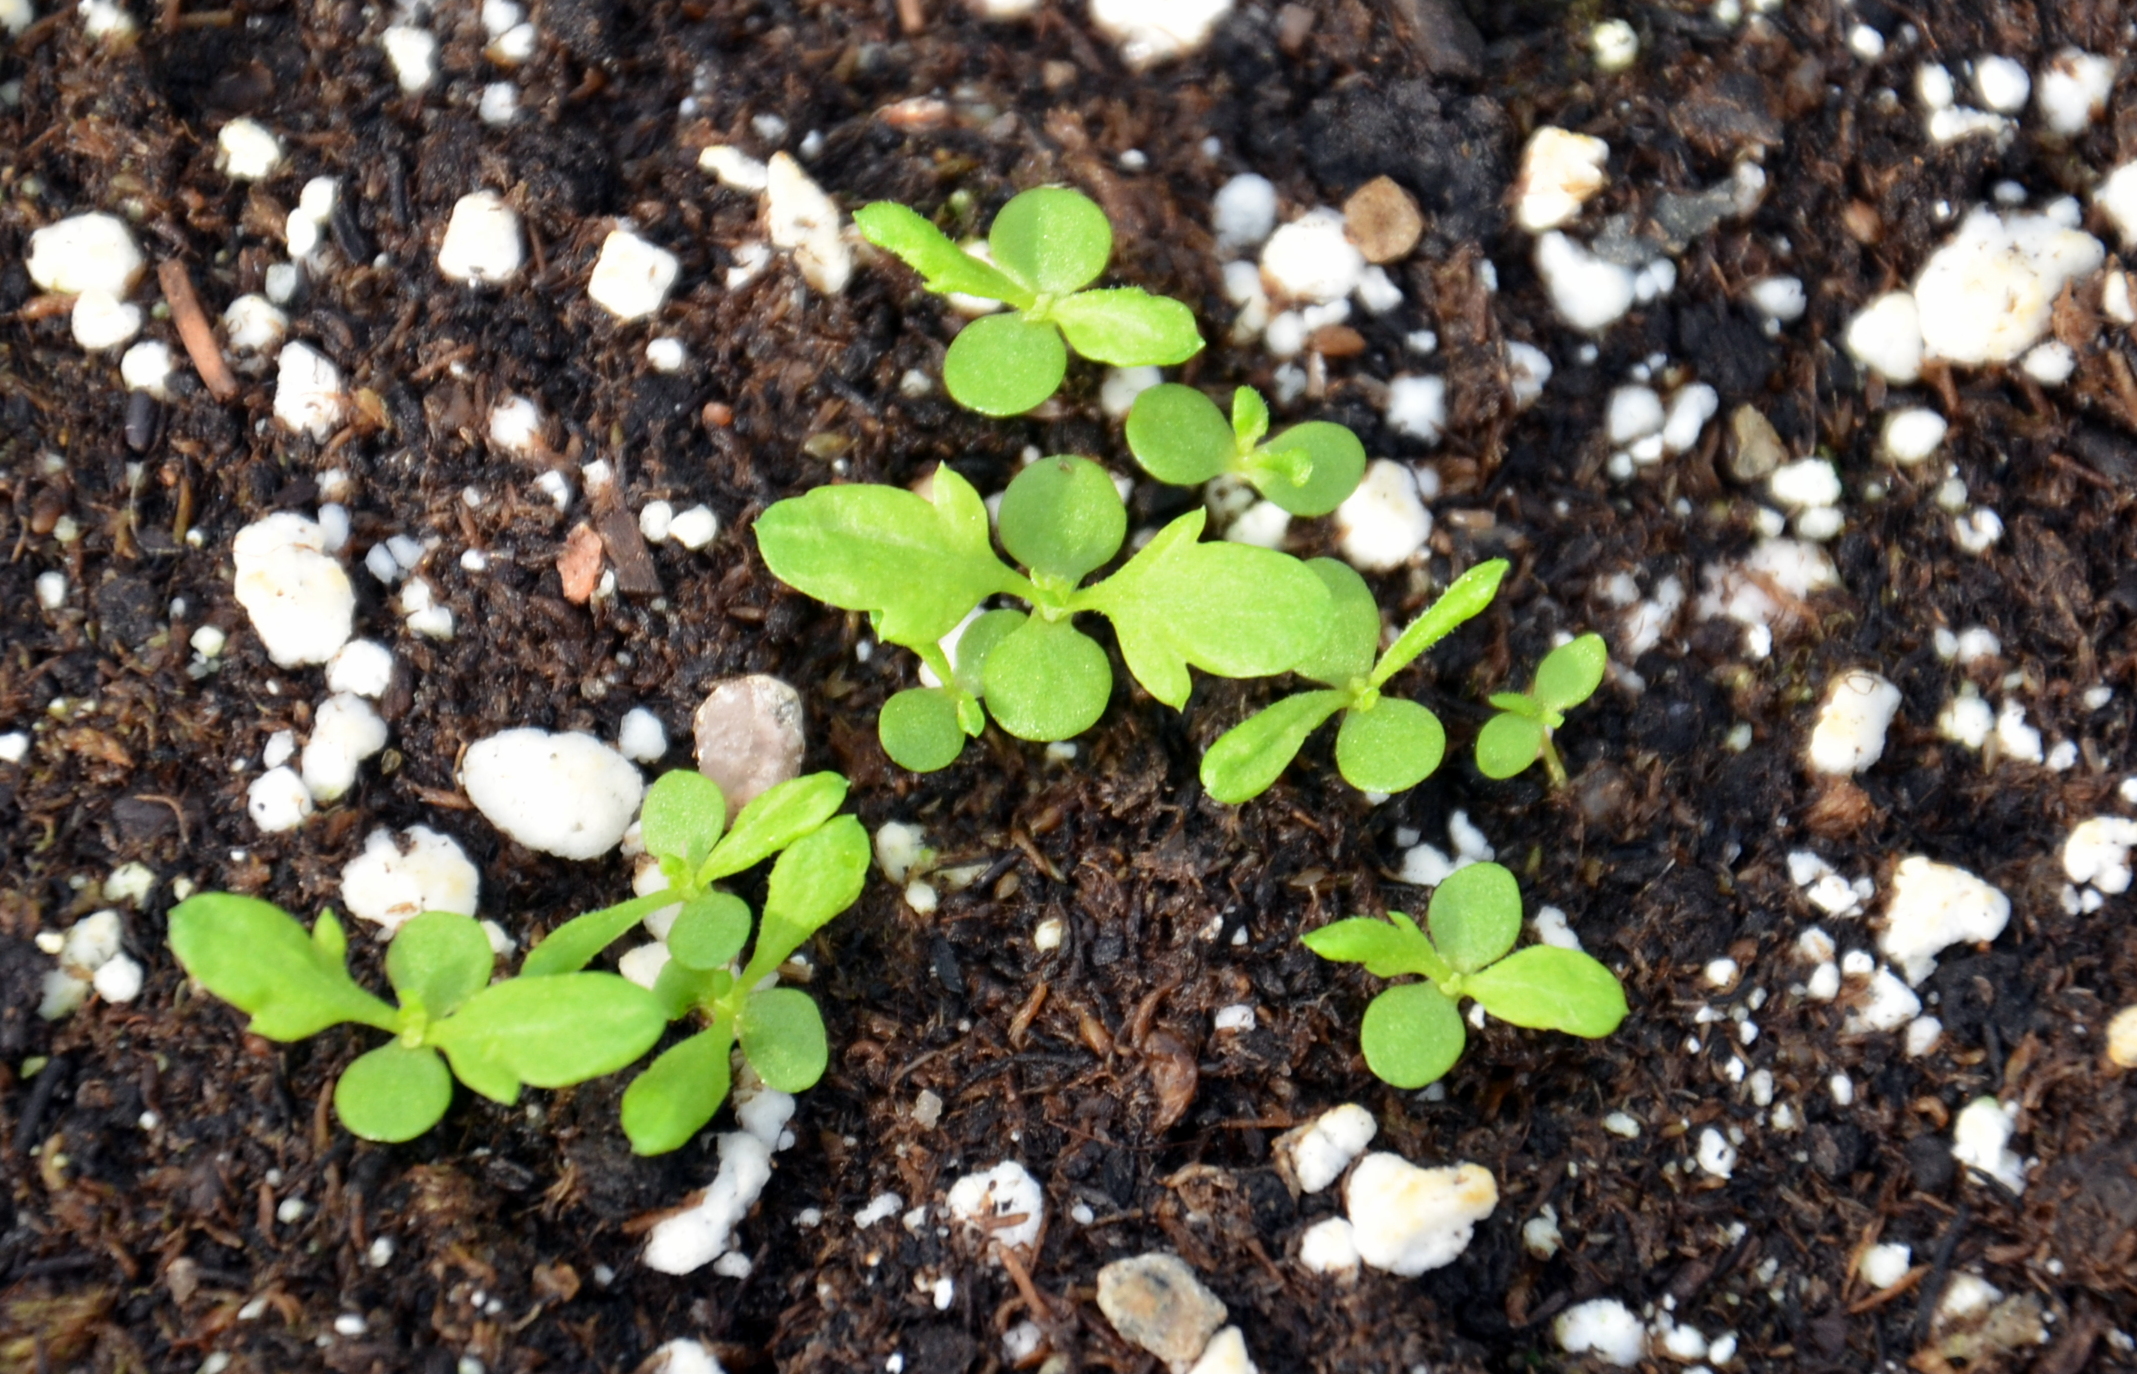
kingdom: Plantae
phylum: Tracheophyta
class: Magnoliopsida
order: Asterales
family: Asteraceae
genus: Tanacetum
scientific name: Tanacetum parthenium
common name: Feverfew
